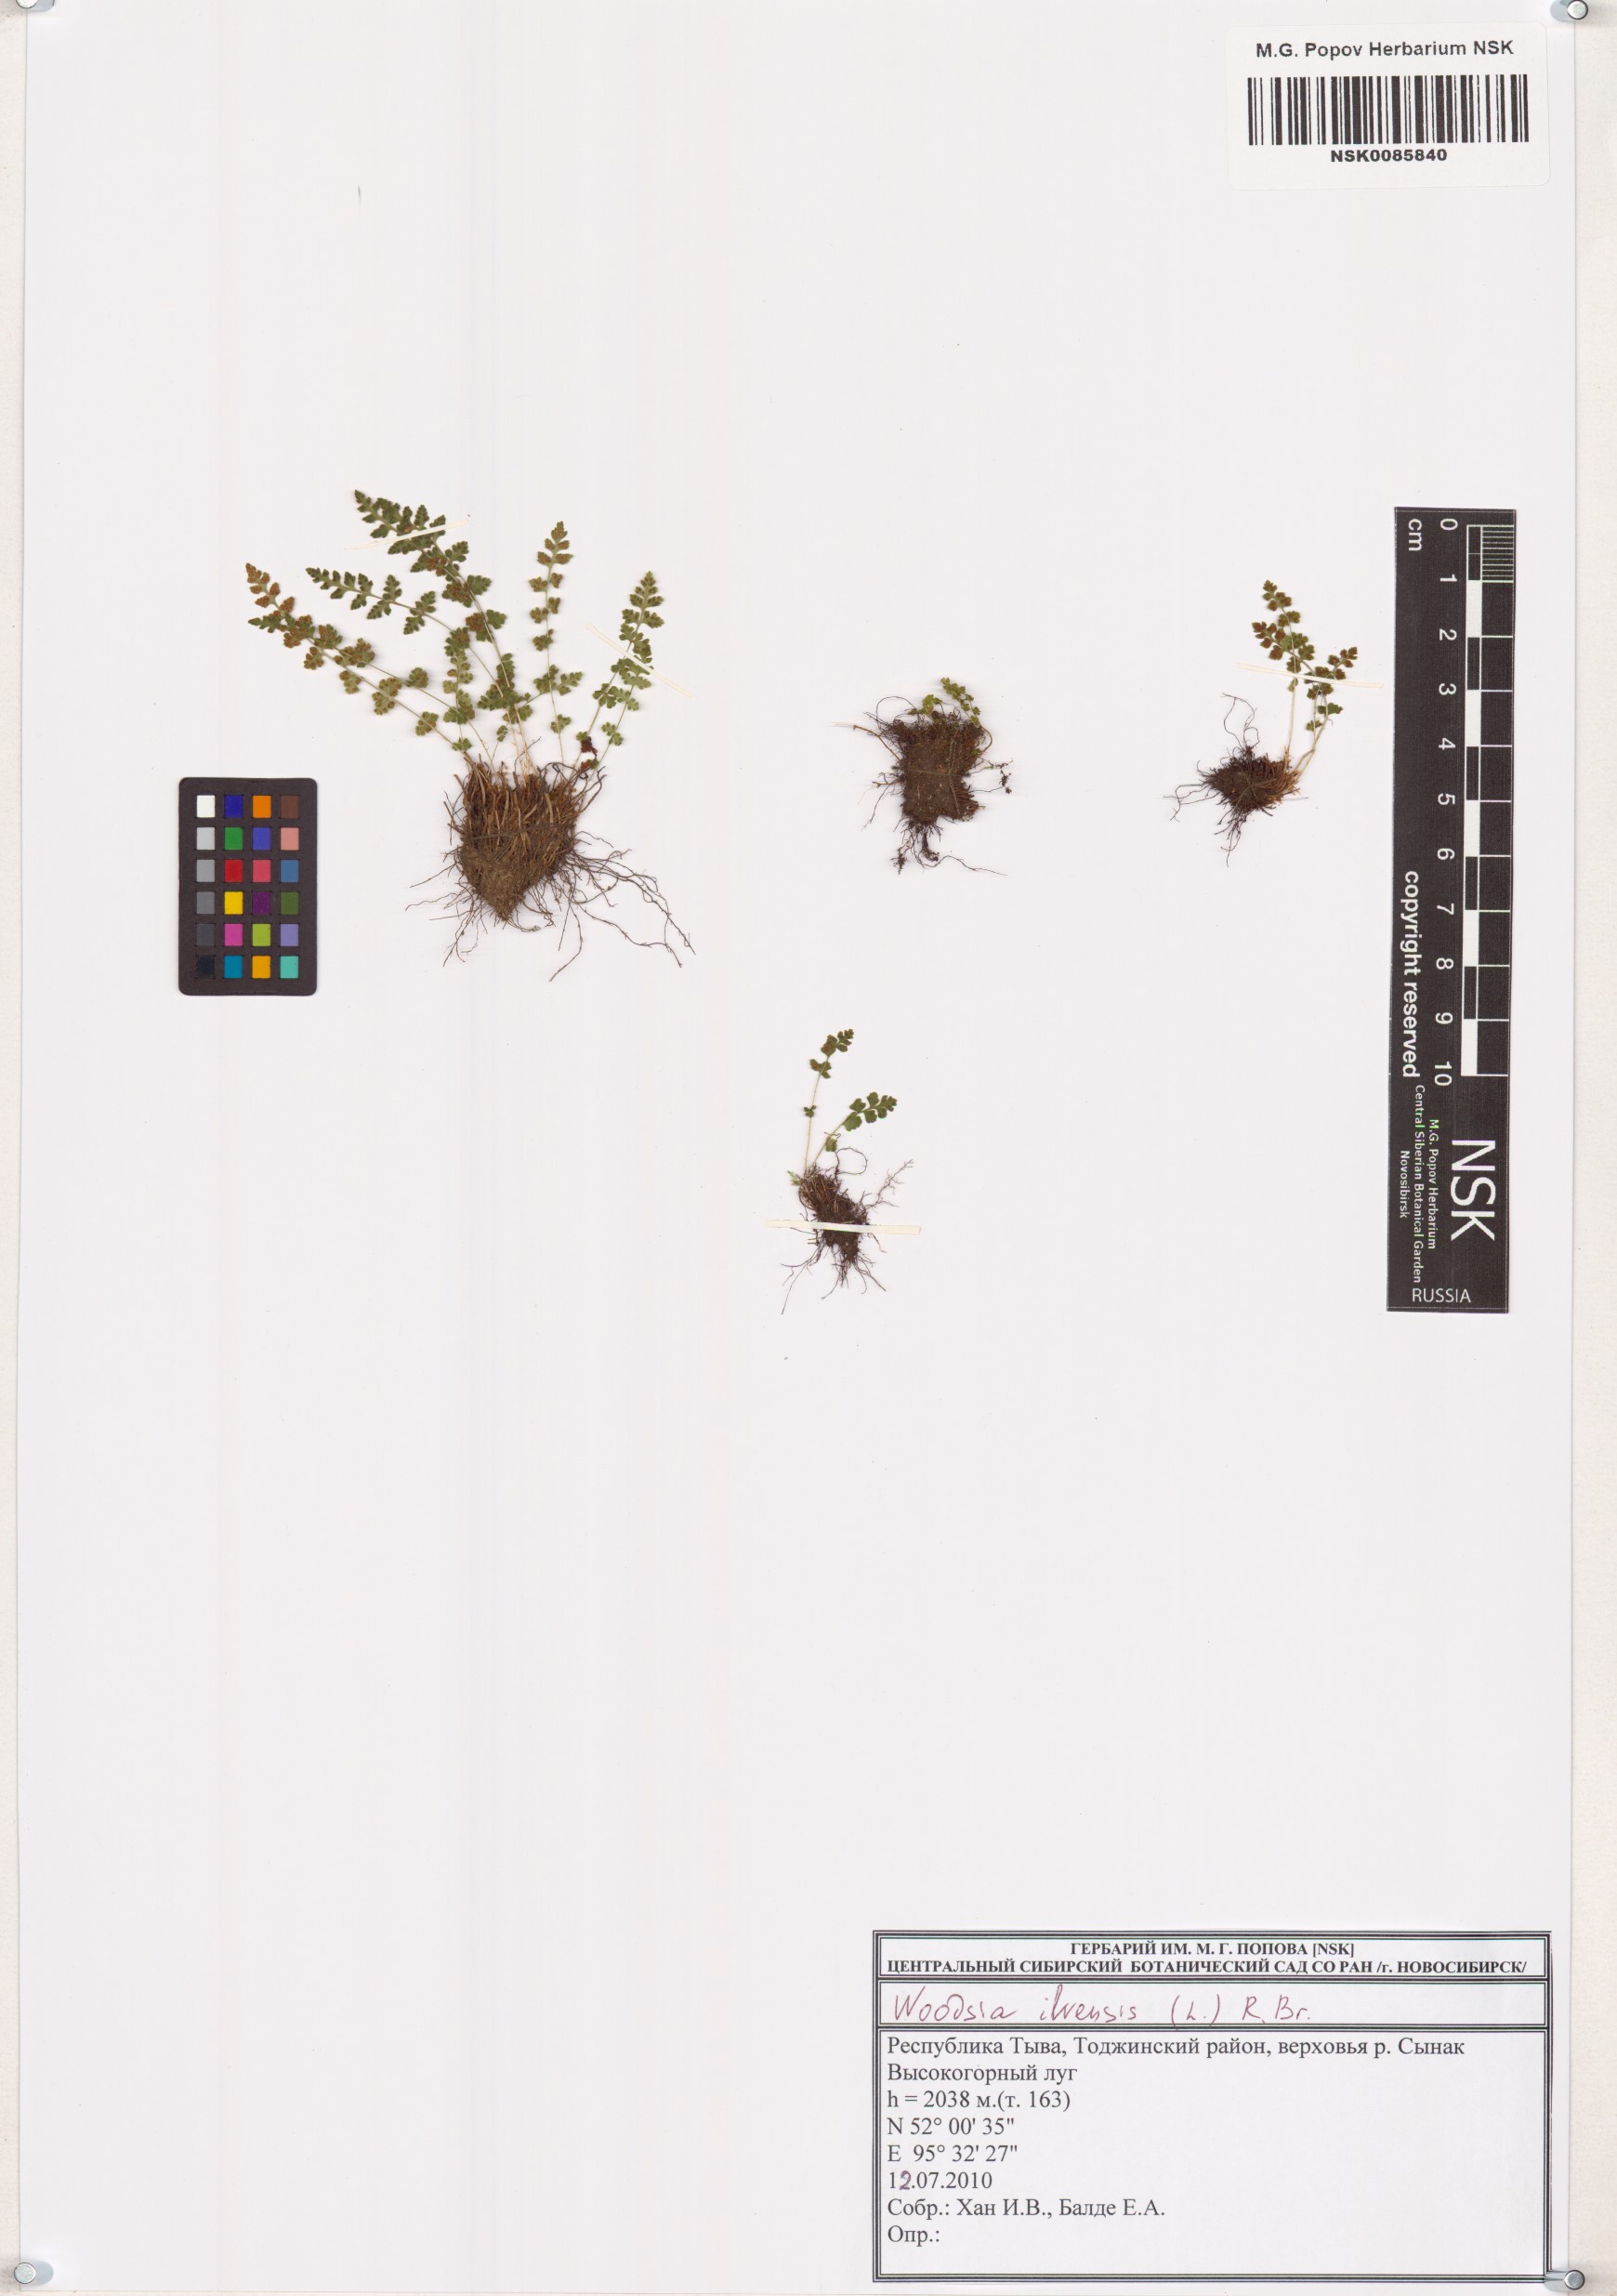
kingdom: Plantae
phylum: Tracheophyta
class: Polypodiopsida
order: Polypodiales
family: Woodsiaceae
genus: Woodsia
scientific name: Woodsia ilvensis
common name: Fragrant woodsia
